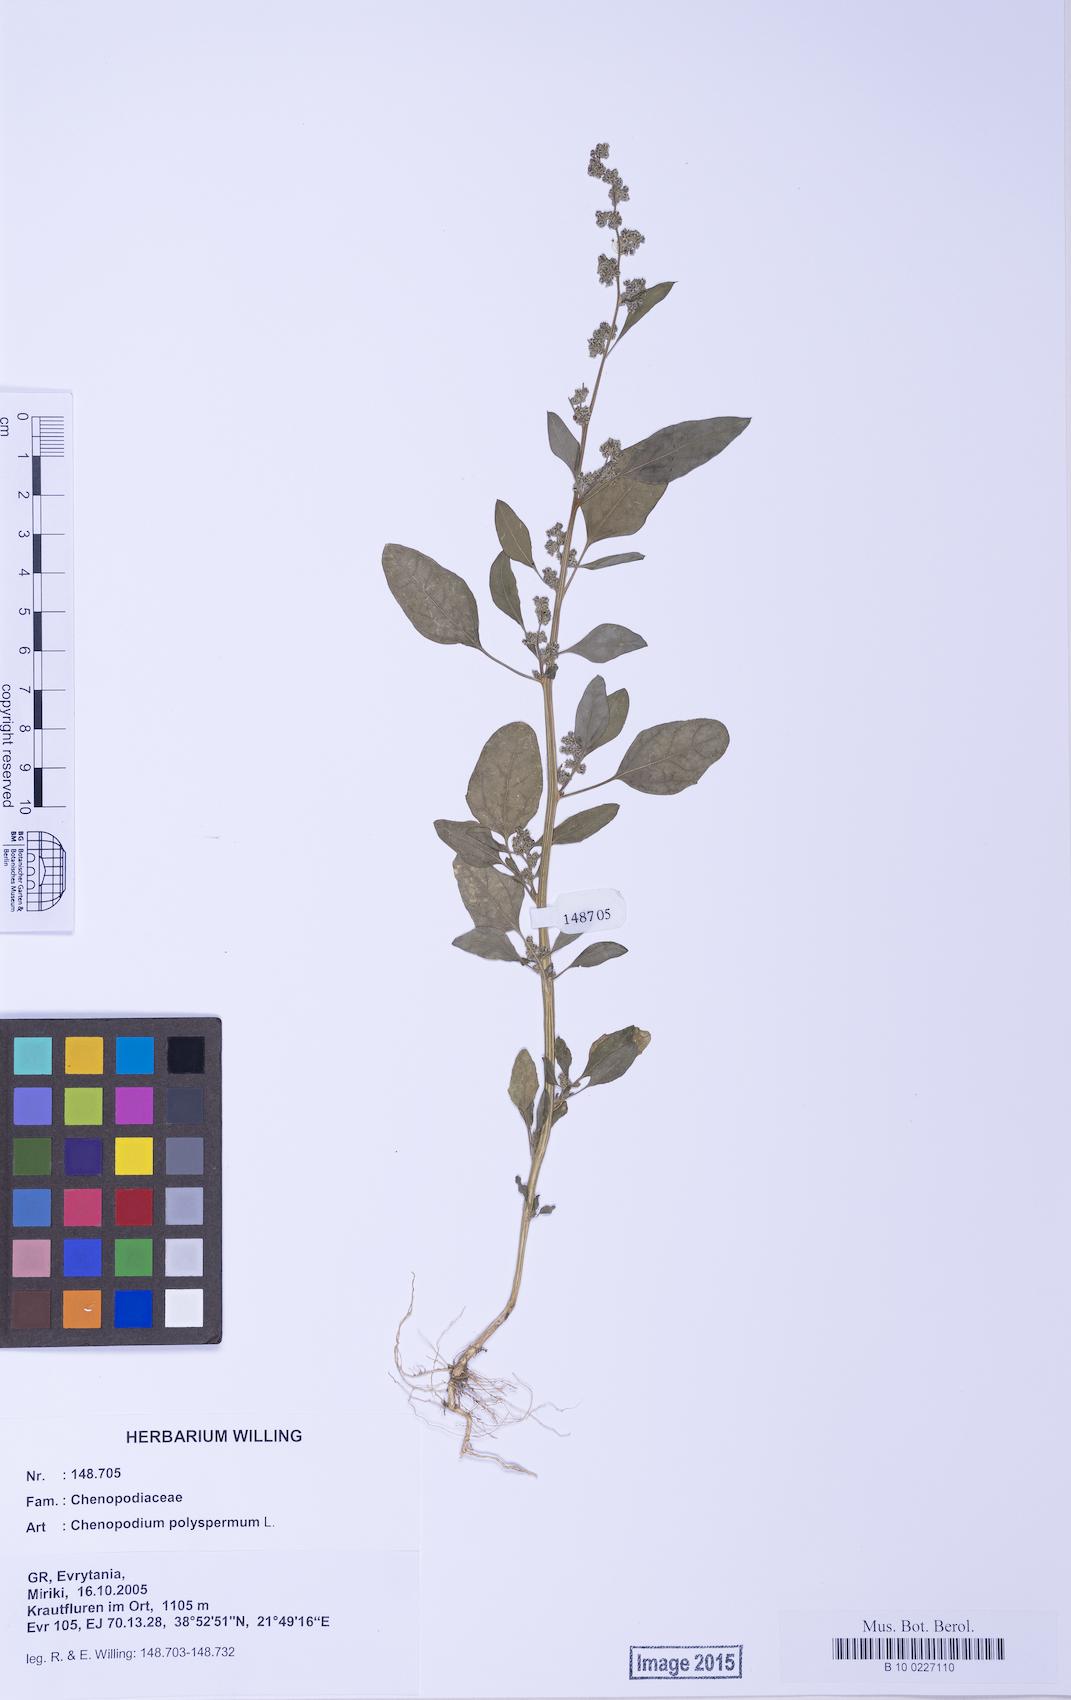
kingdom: Plantae
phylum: Tracheophyta
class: Magnoliopsida
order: Caryophyllales
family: Amaranthaceae
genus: Lipandra
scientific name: Lipandra polysperma
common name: Many-seed goosefoot
